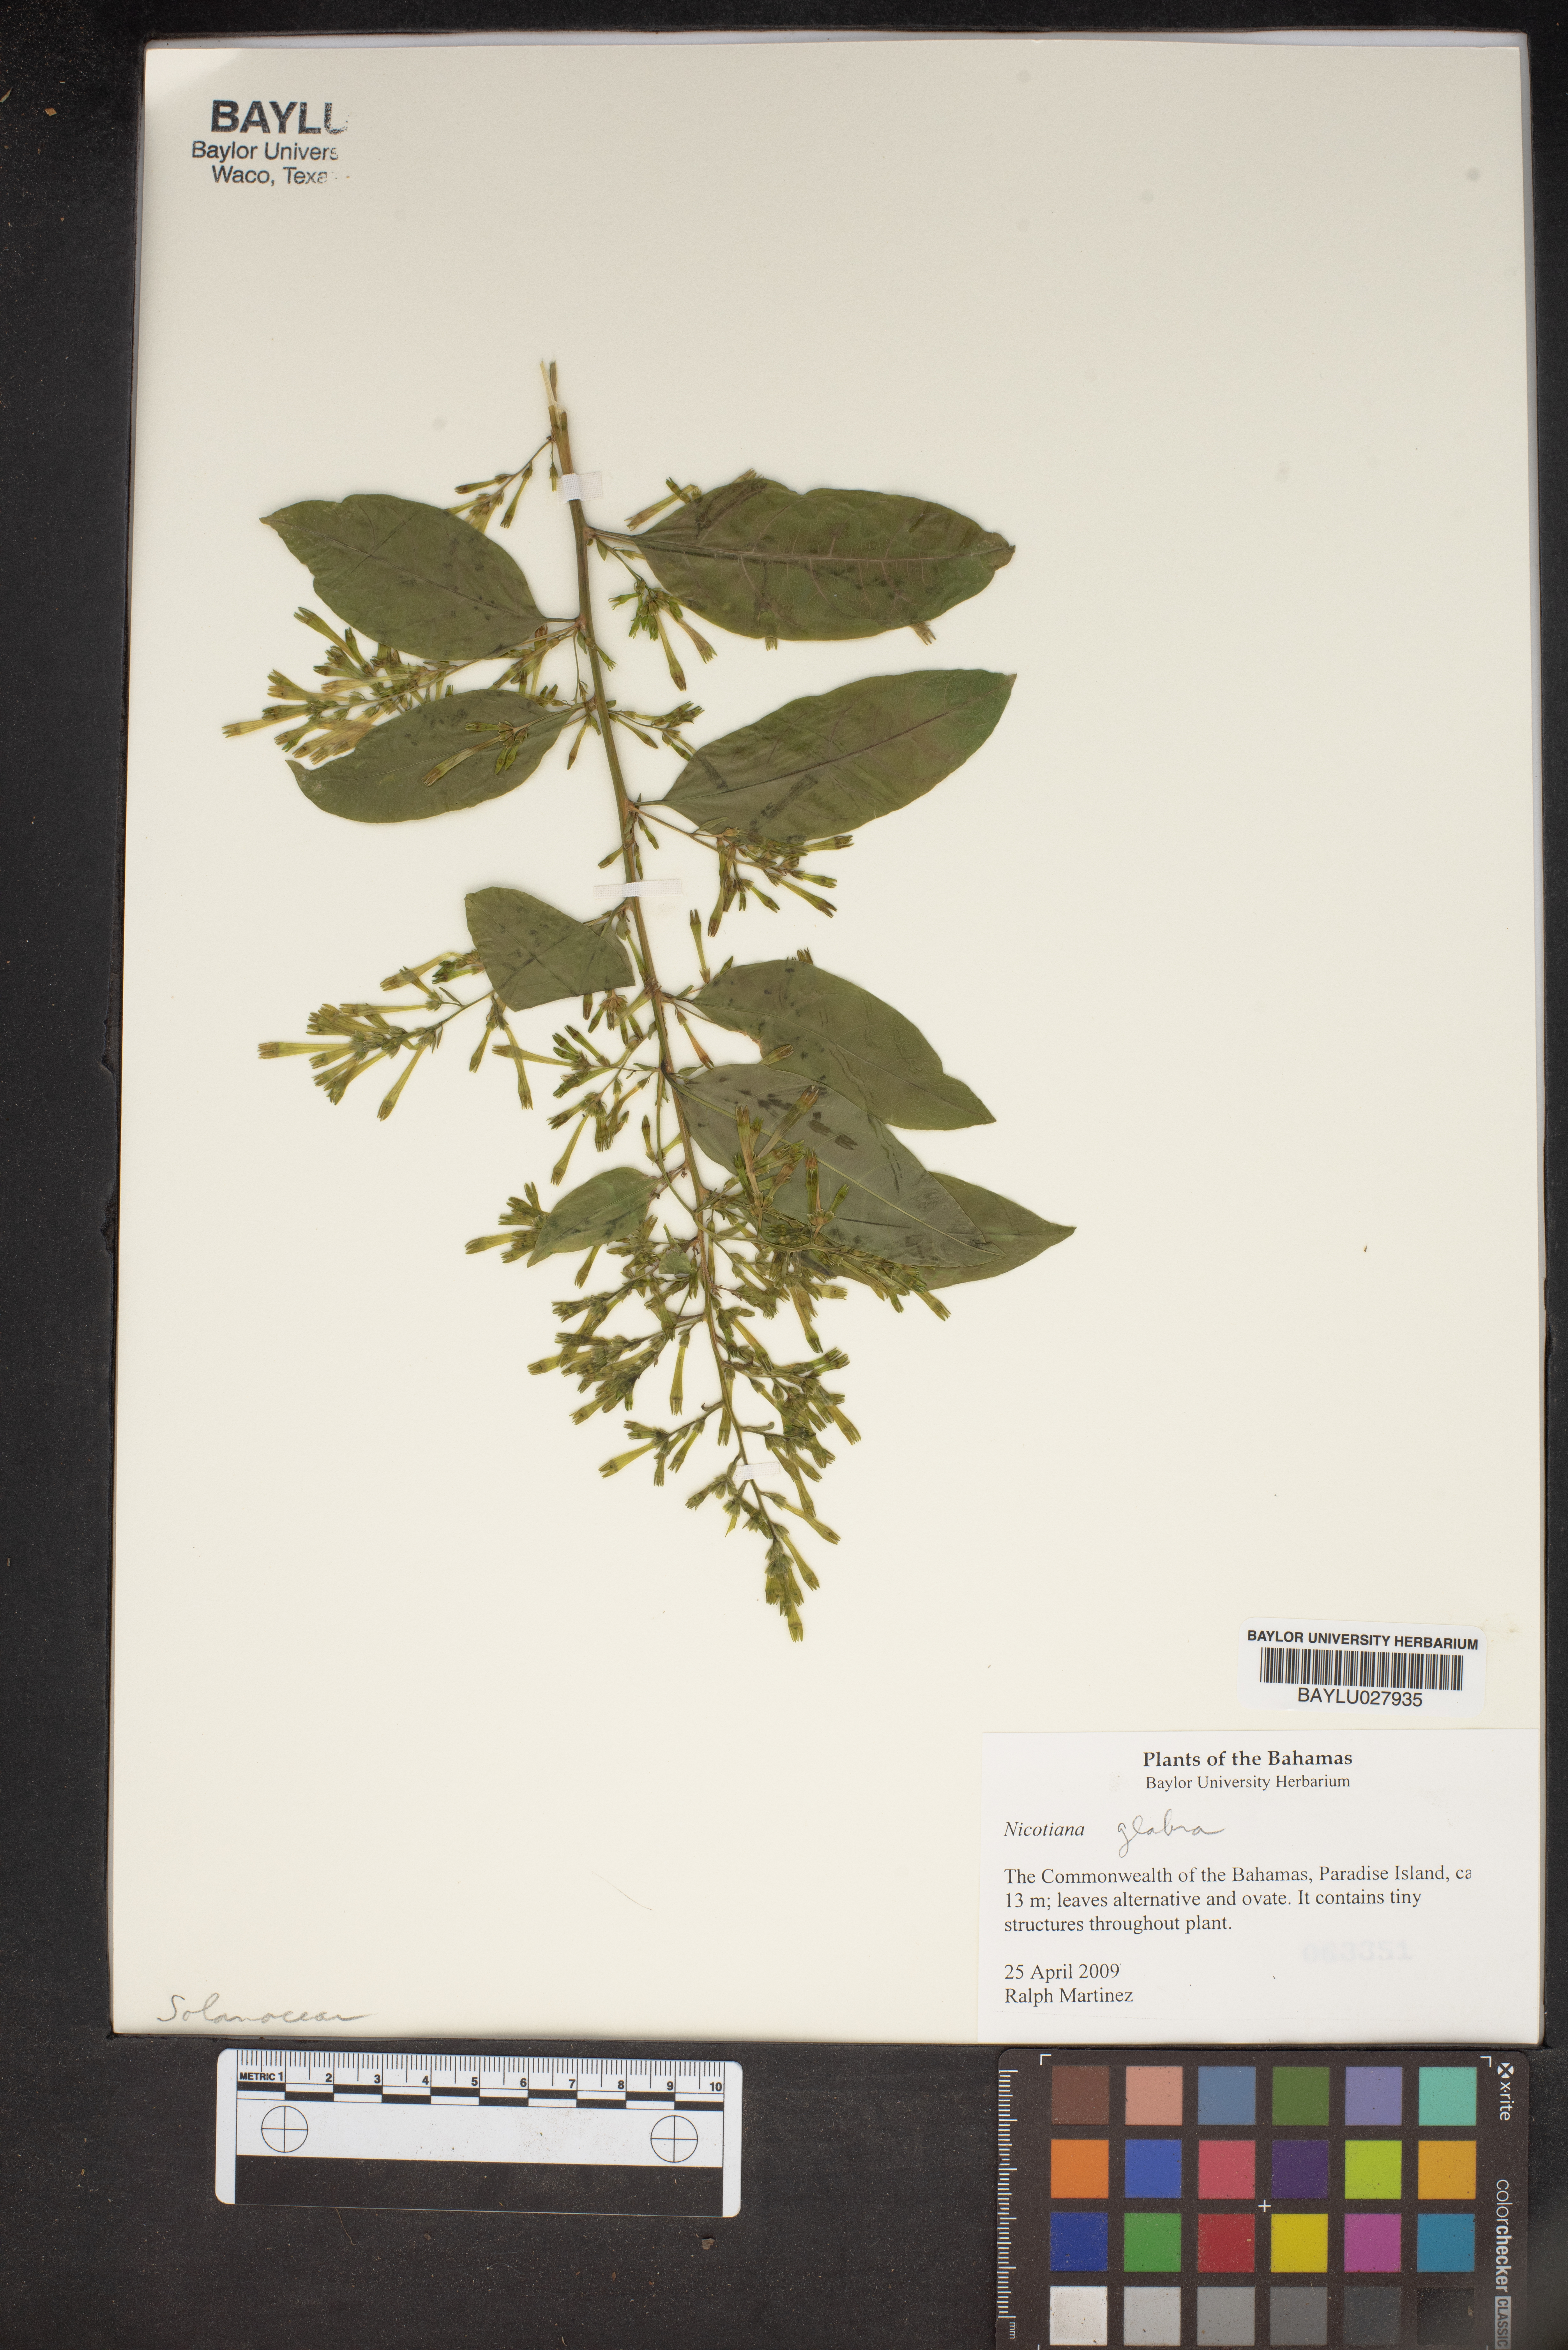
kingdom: Plantae
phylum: Tracheophyta
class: Magnoliopsida
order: Solanales
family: Solanaceae
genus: Nicotiana
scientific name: Nicotiana glauca
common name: Tree tobacco
